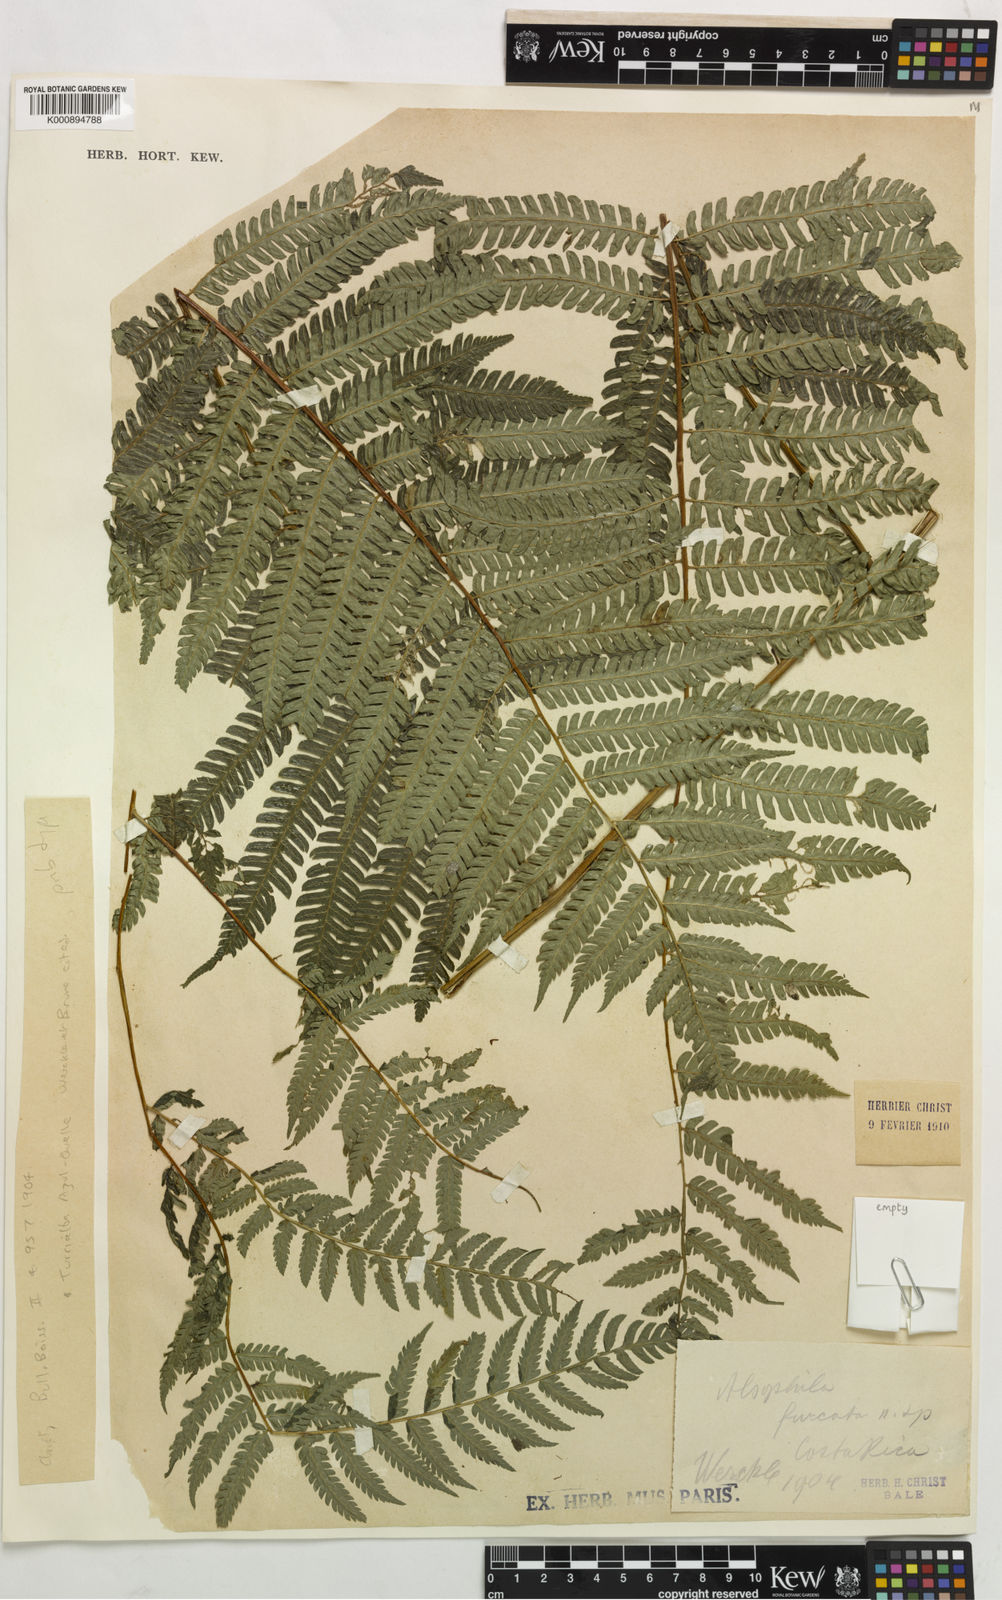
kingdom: Plantae
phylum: Tracheophyta
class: Polypodiopsida
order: Cyatheales
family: Cyatheaceae
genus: Alsophila
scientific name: Alsophila firma
